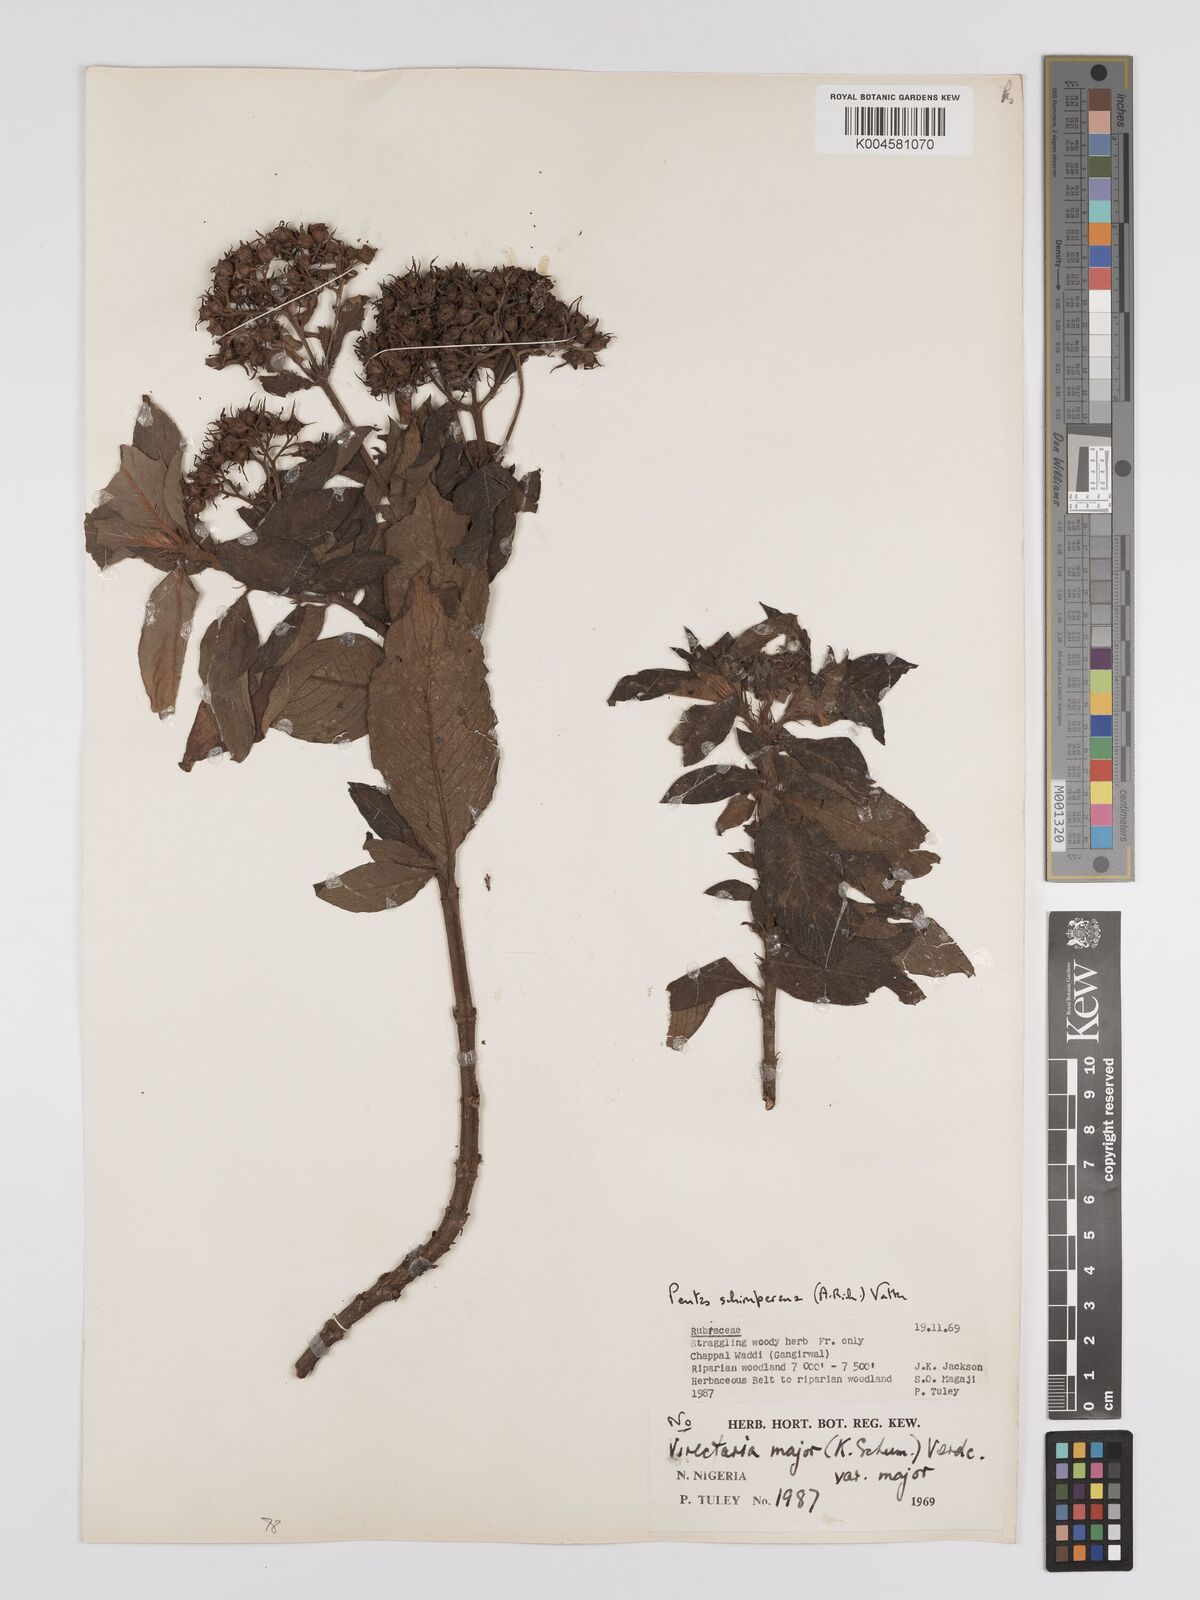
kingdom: Plantae
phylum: Tracheophyta
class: Magnoliopsida
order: Gentianales
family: Rubiaceae
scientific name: Rubiaceae
